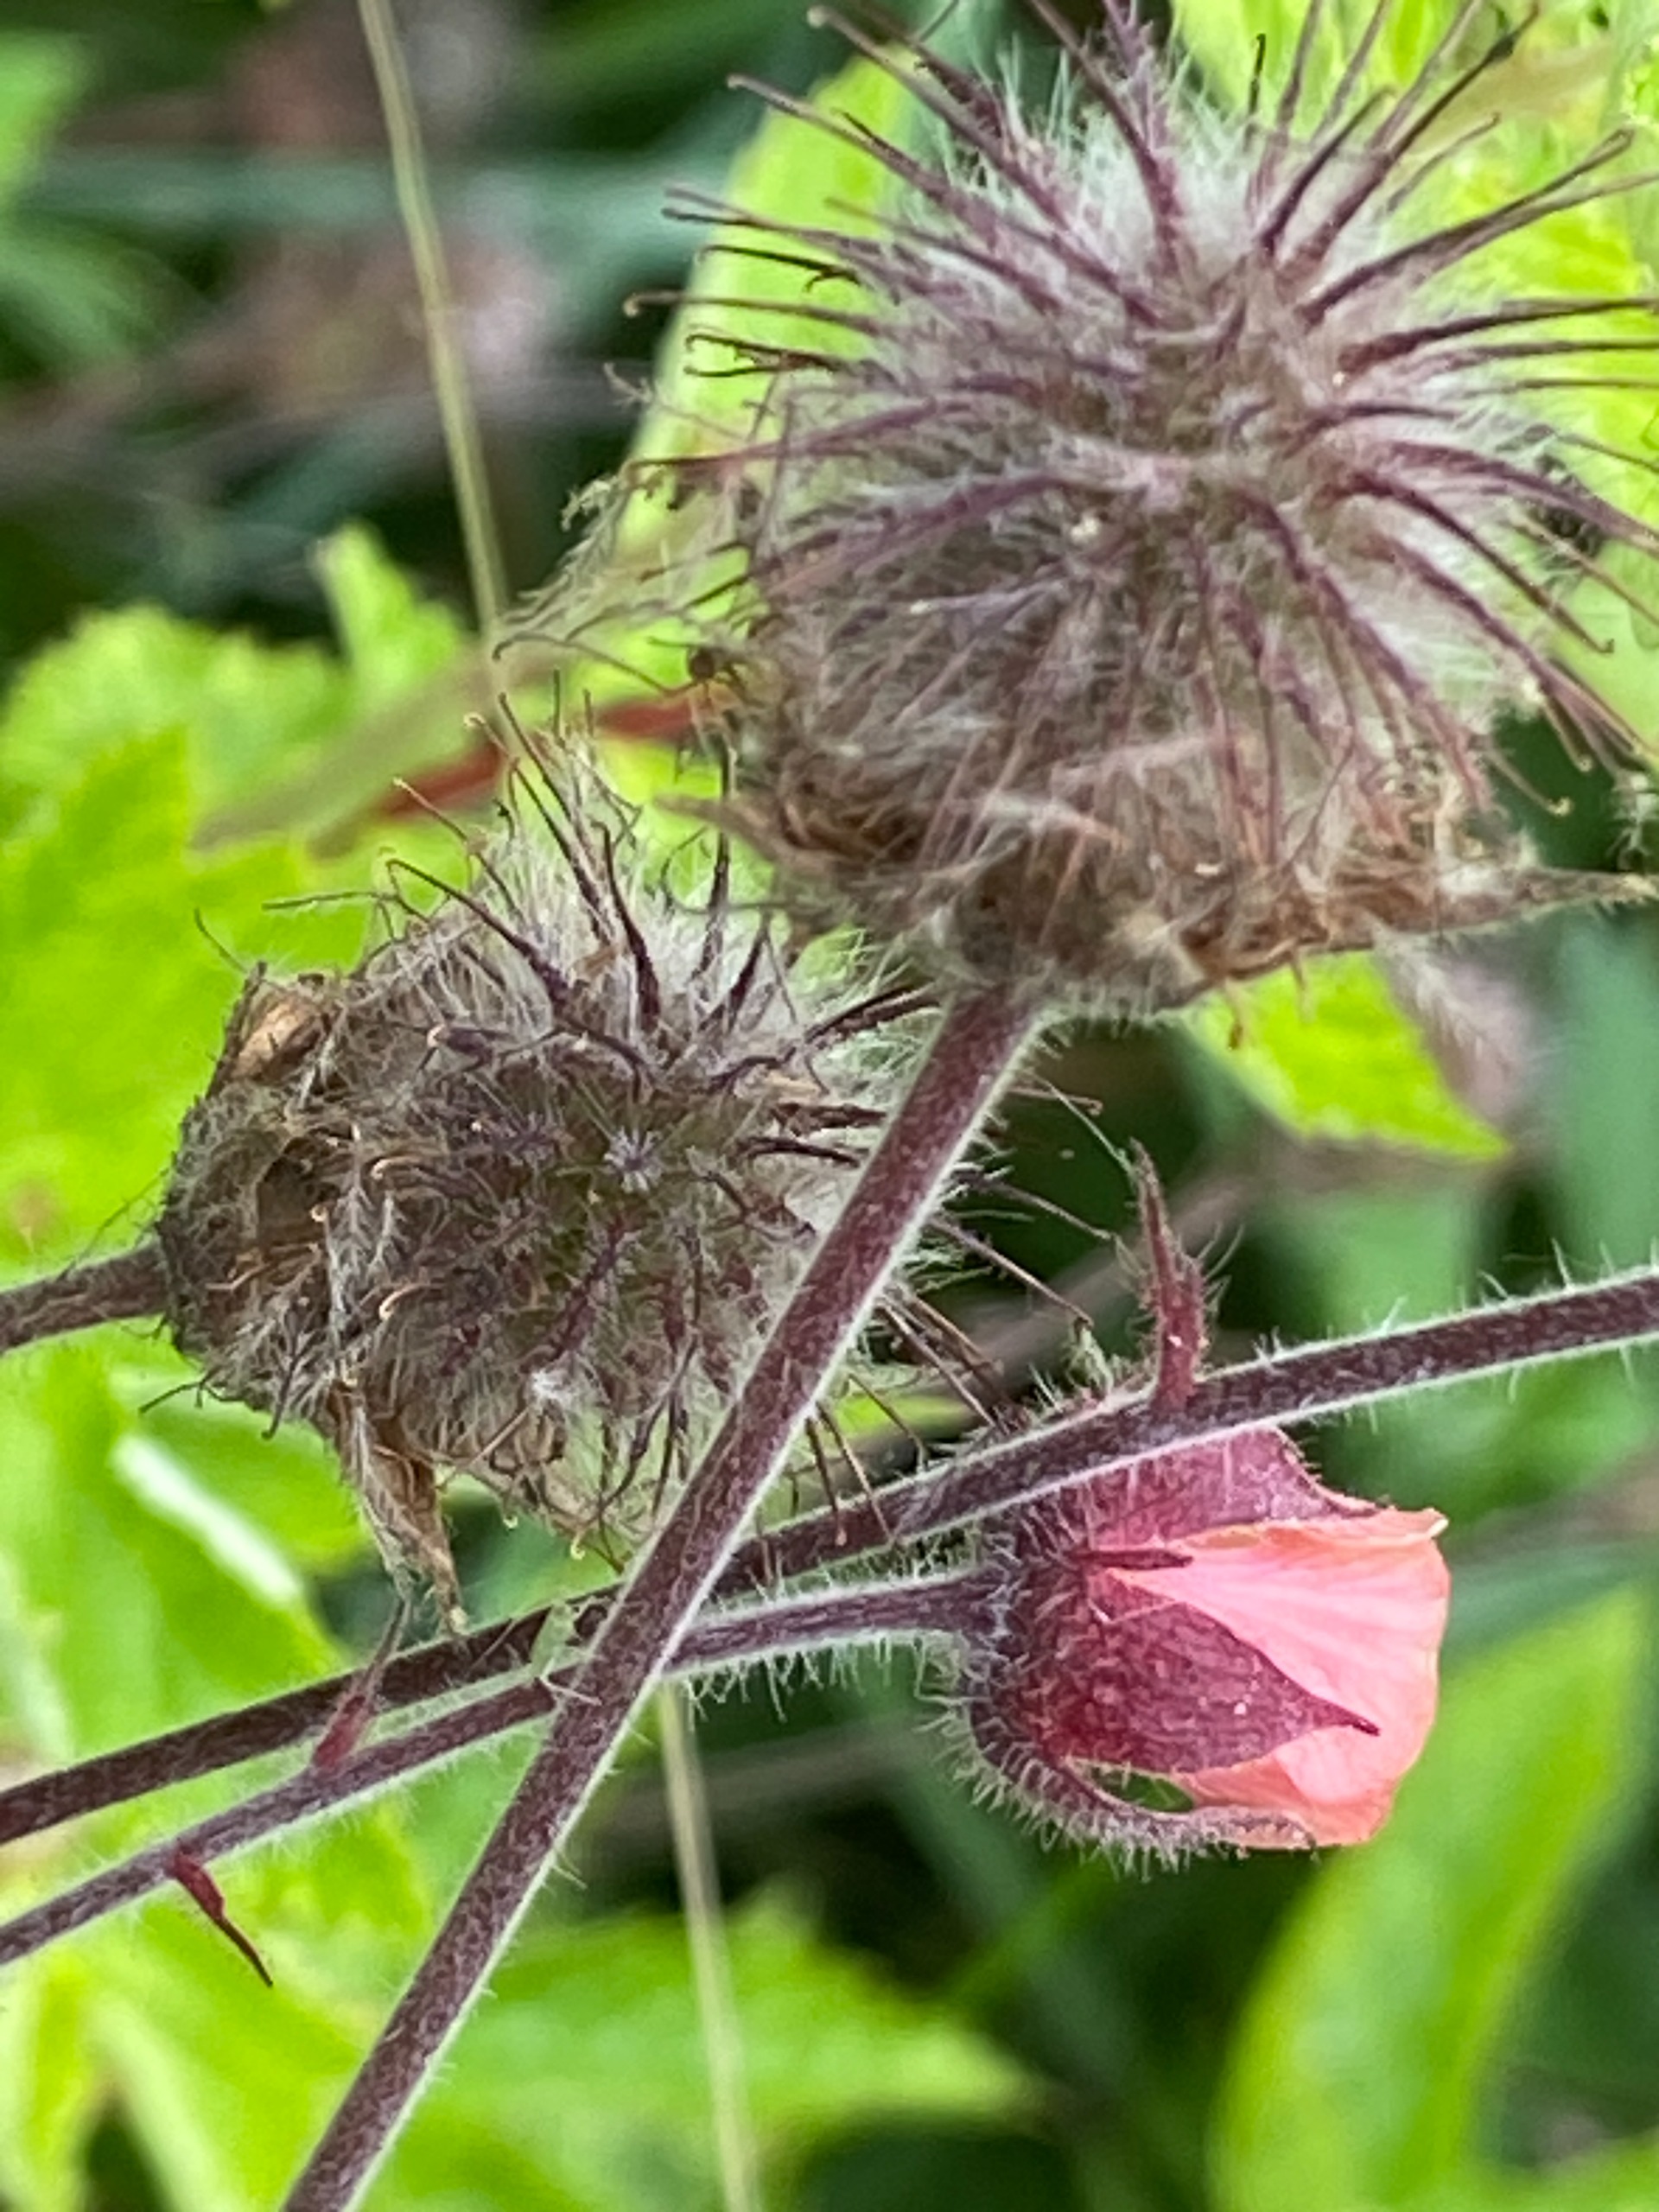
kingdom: Plantae
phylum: Tracheophyta
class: Magnoliopsida
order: Rosales
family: Rosaceae
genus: Geum
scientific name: Geum rivale
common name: Eng-nellikerod
